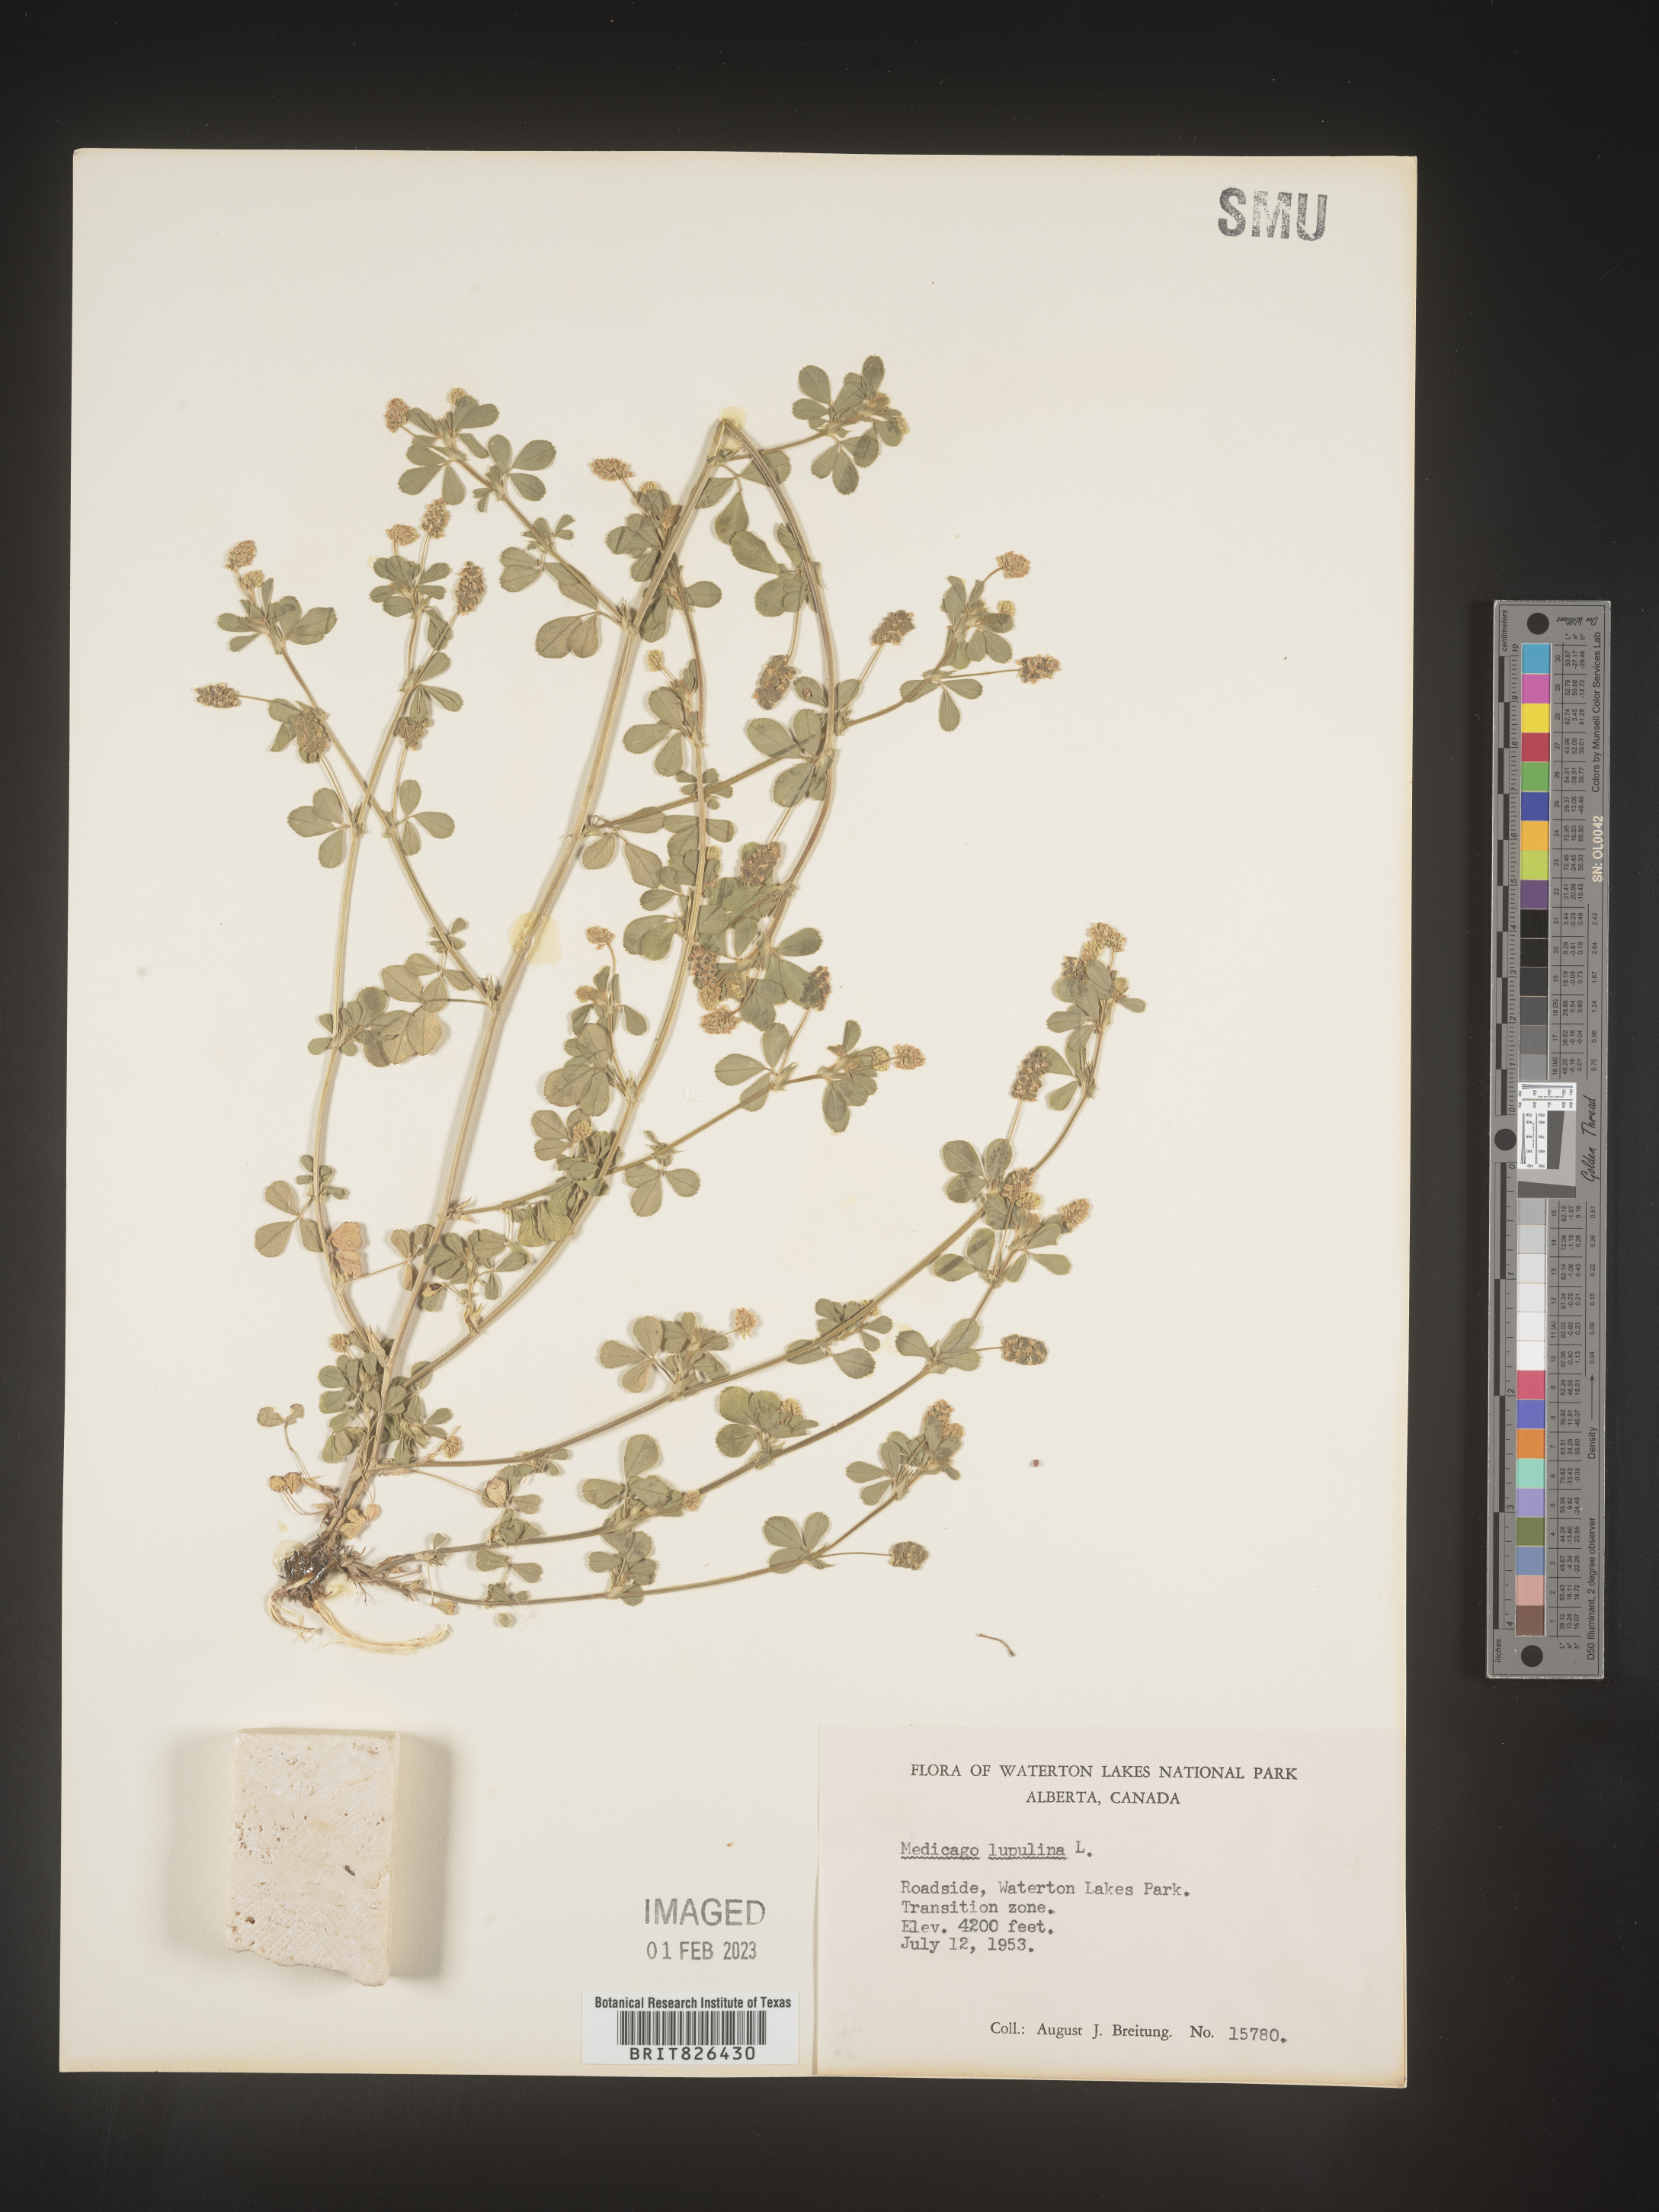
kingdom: Plantae
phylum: Tracheophyta
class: Magnoliopsida
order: Fabales
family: Fabaceae
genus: Medicago
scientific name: Medicago lupulina
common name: Black medick
